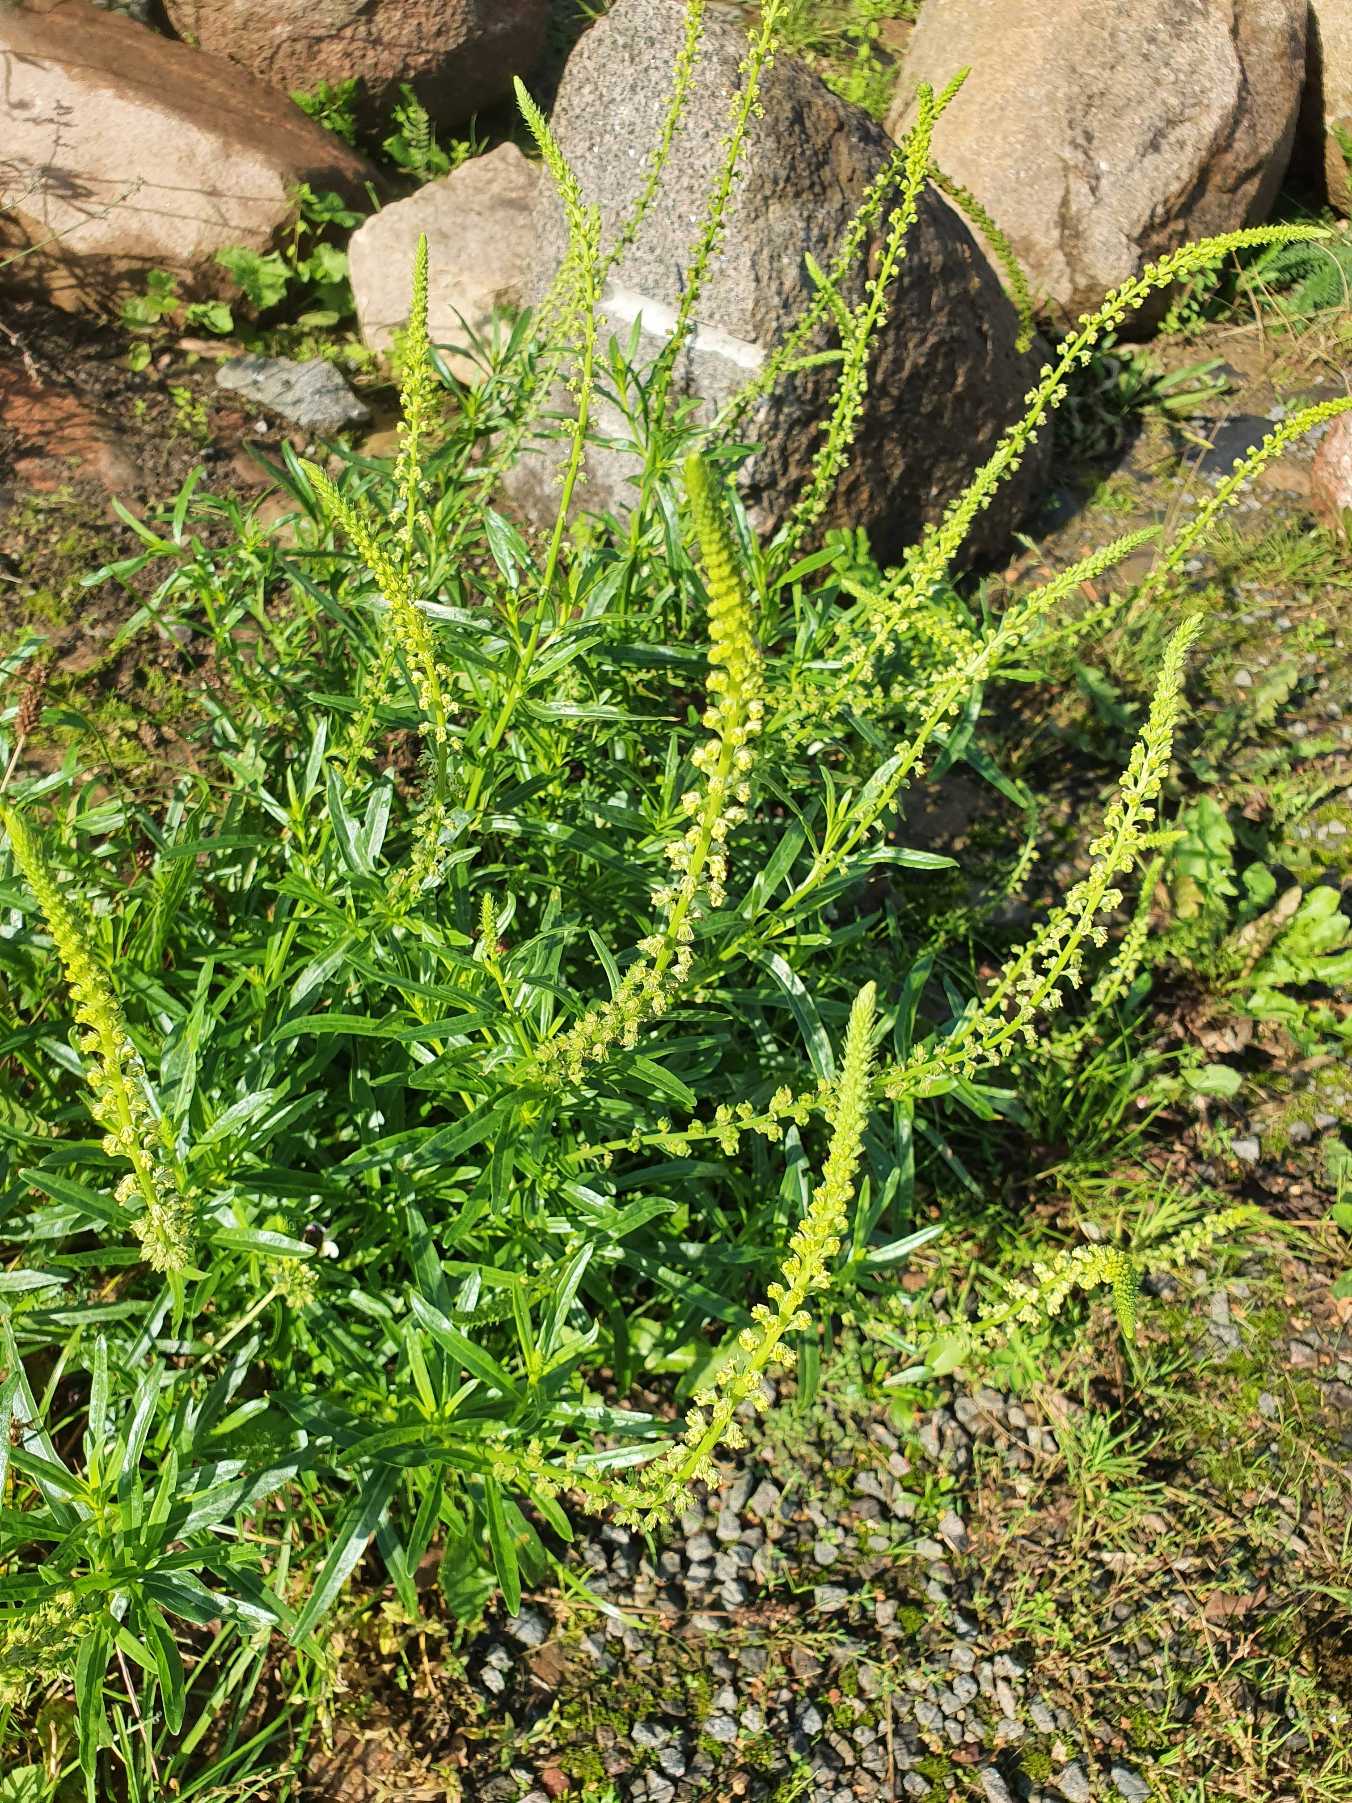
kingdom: Plantae
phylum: Tracheophyta
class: Magnoliopsida
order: Brassicales
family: Resedaceae
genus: Reseda
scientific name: Reseda luteola
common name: Farve-reseda
